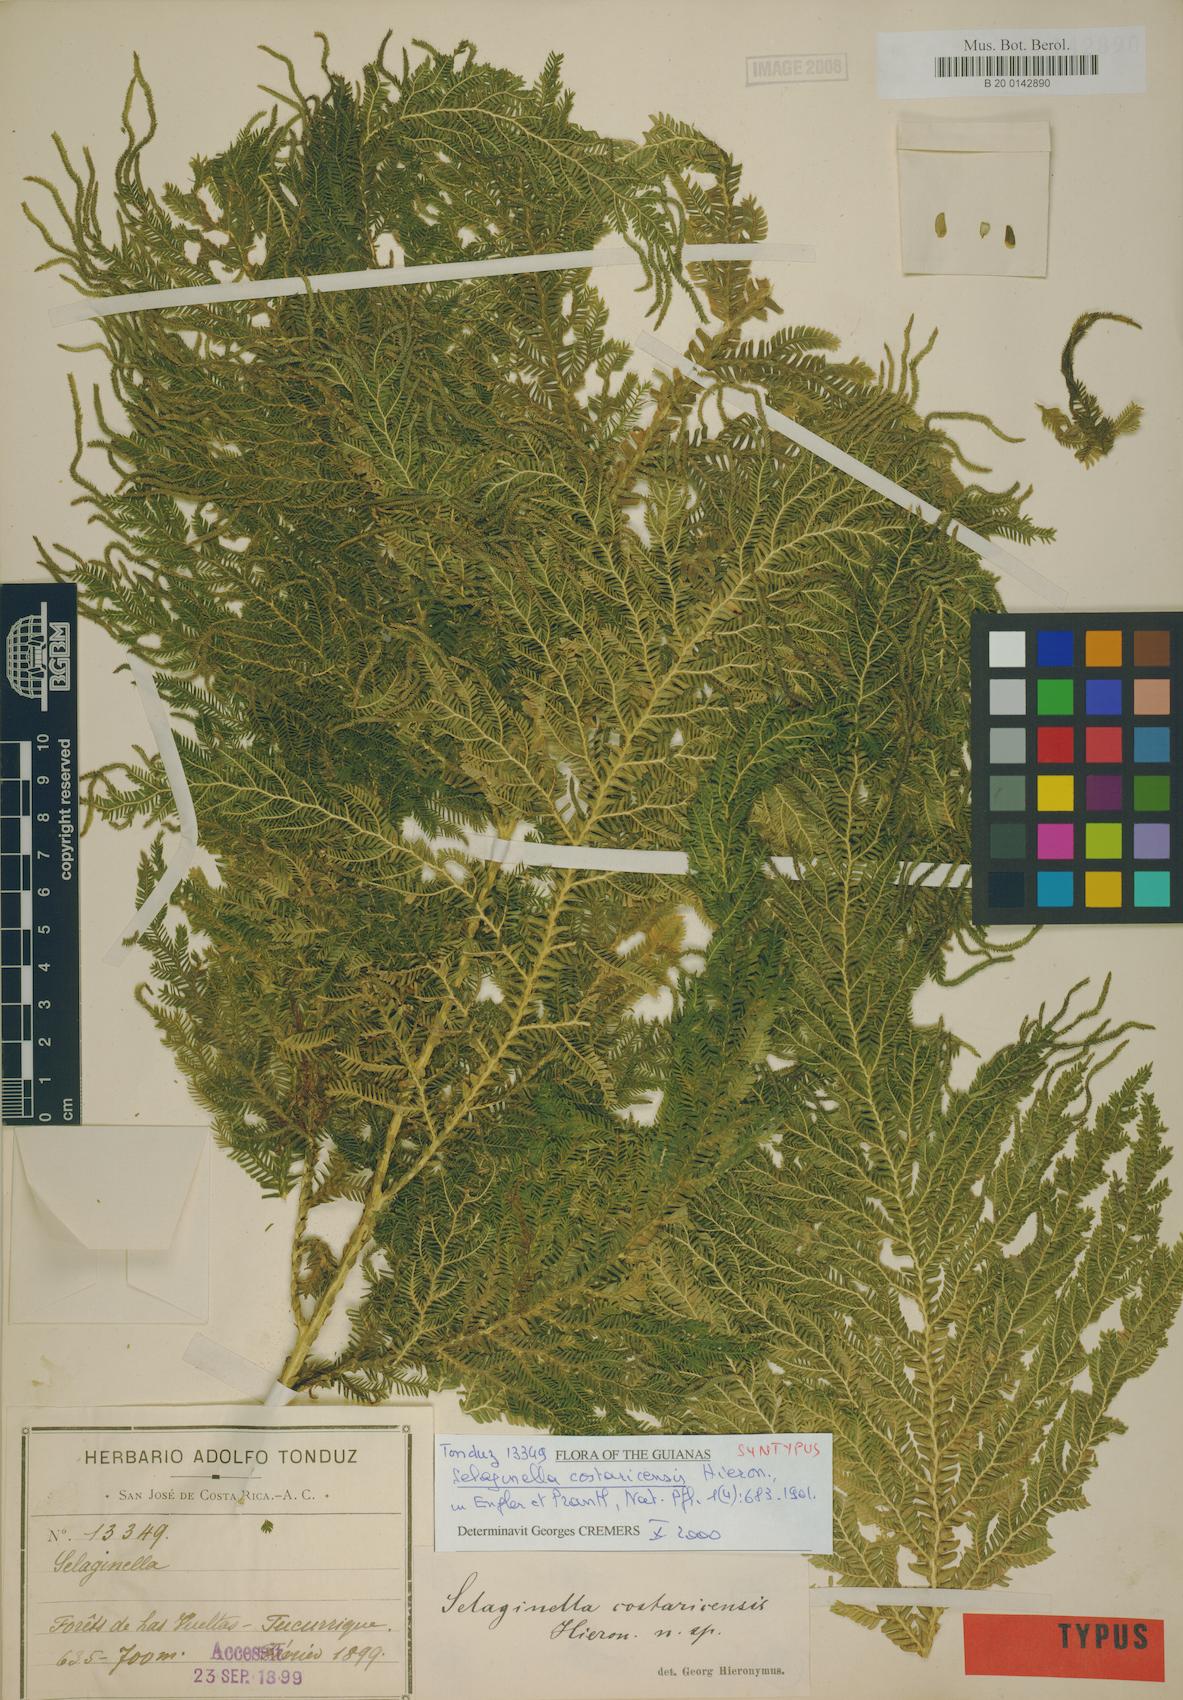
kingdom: Plantae
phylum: Tracheophyta
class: Lycopodiopsida
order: Selaginellales
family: Selaginellaceae
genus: Selaginella
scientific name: Selaginella oaxacana
